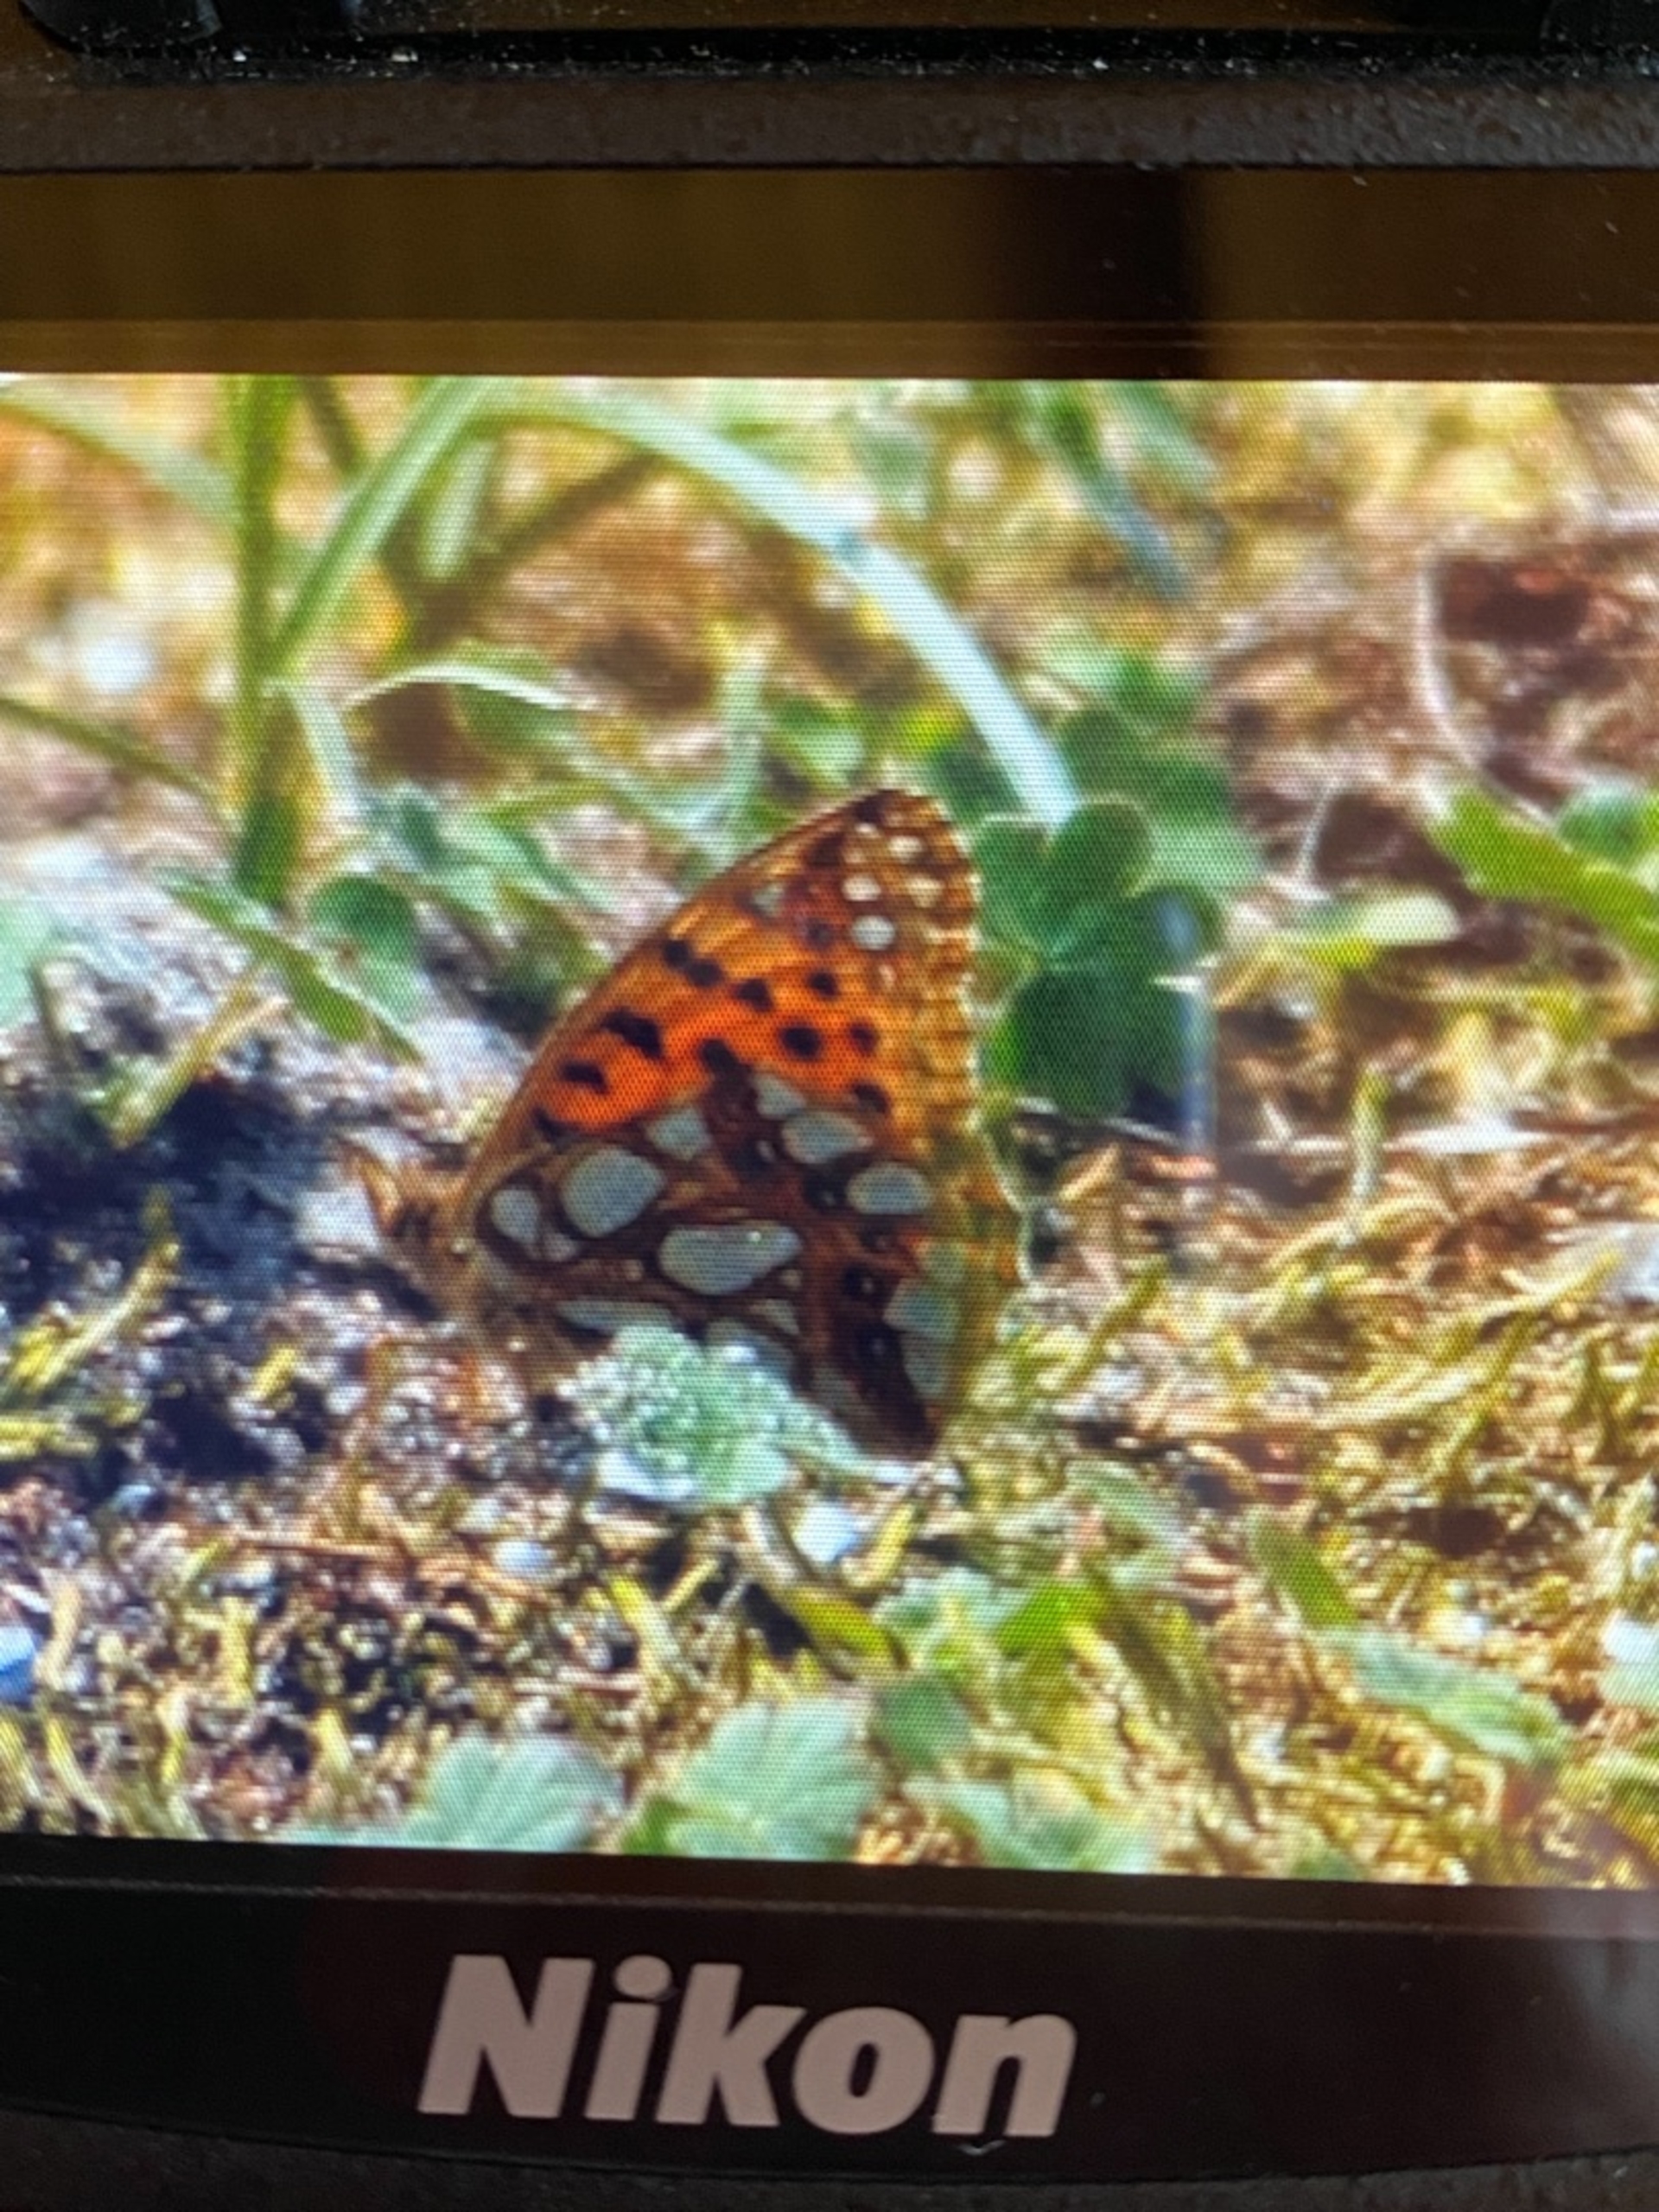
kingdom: Animalia
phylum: Arthropoda
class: Insecta
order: Lepidoptera
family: Nymphalidae
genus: Issoria
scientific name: Issoria lathonia
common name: Storplettet perlemorsommerfugl
